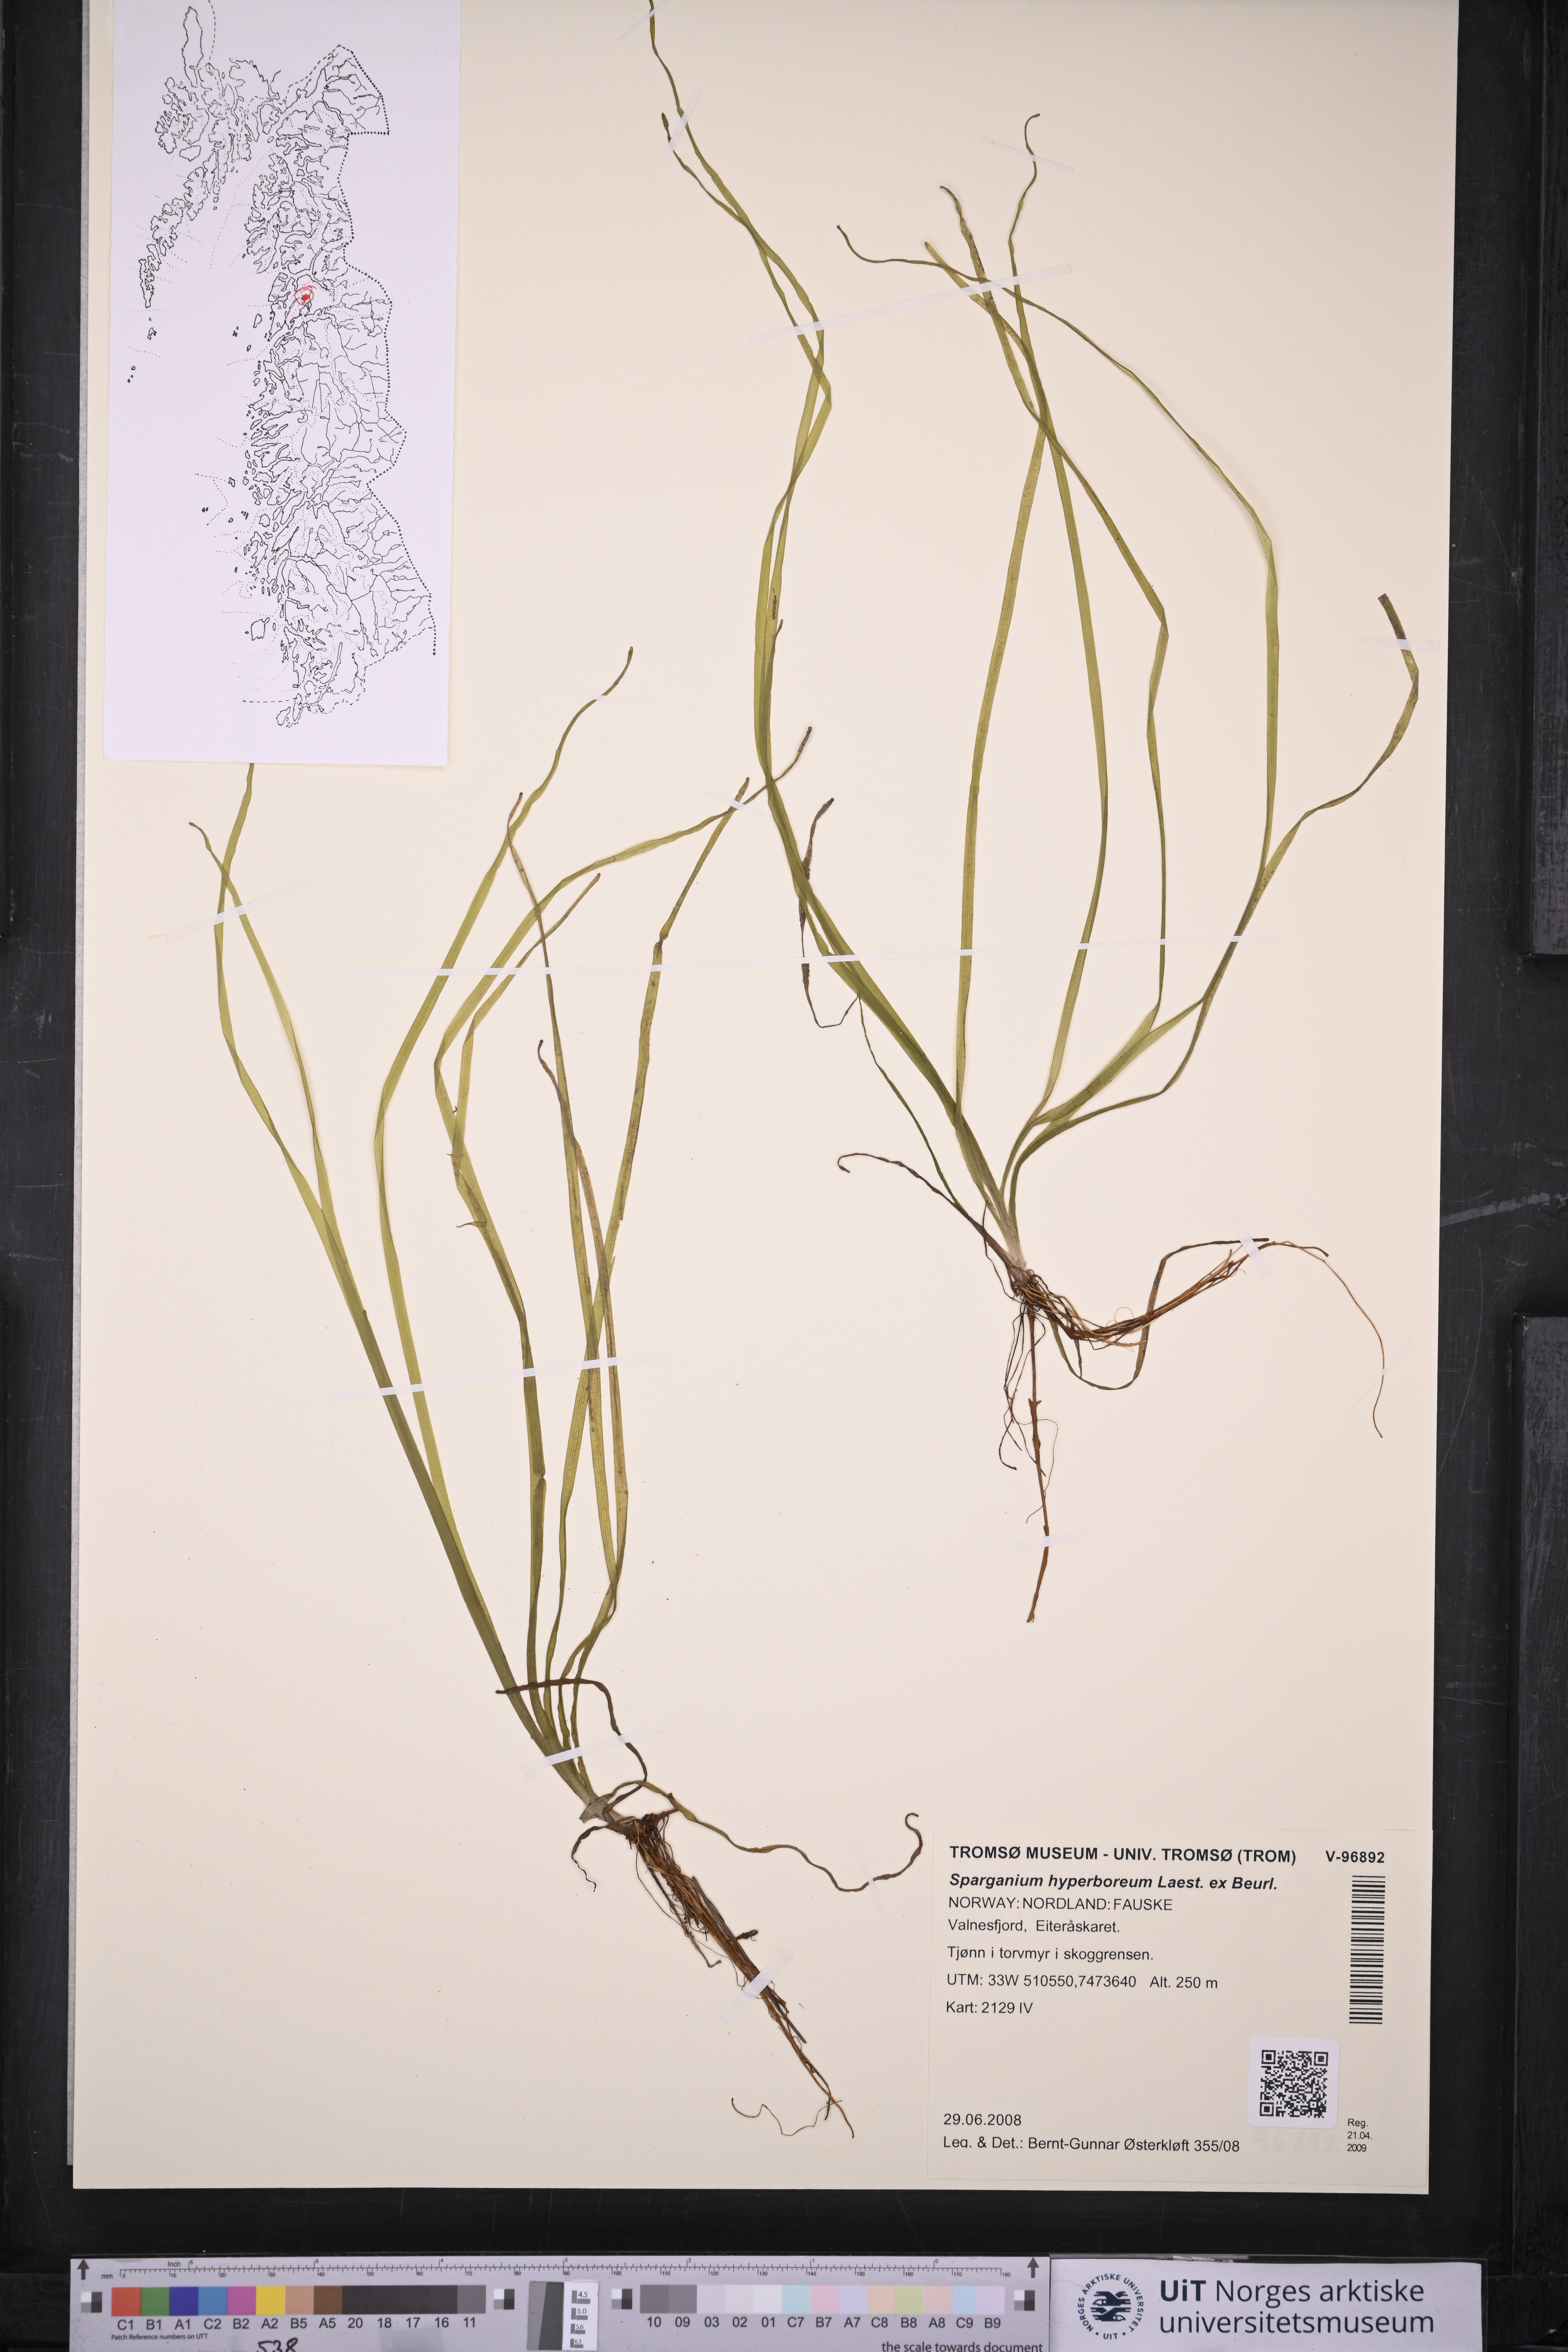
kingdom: Plantae
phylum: Tracheophyta
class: Liliopsida
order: Poales
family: Typhaceae
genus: Sparganium
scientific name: Sparganium hyperboreum
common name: Arctic burreed
